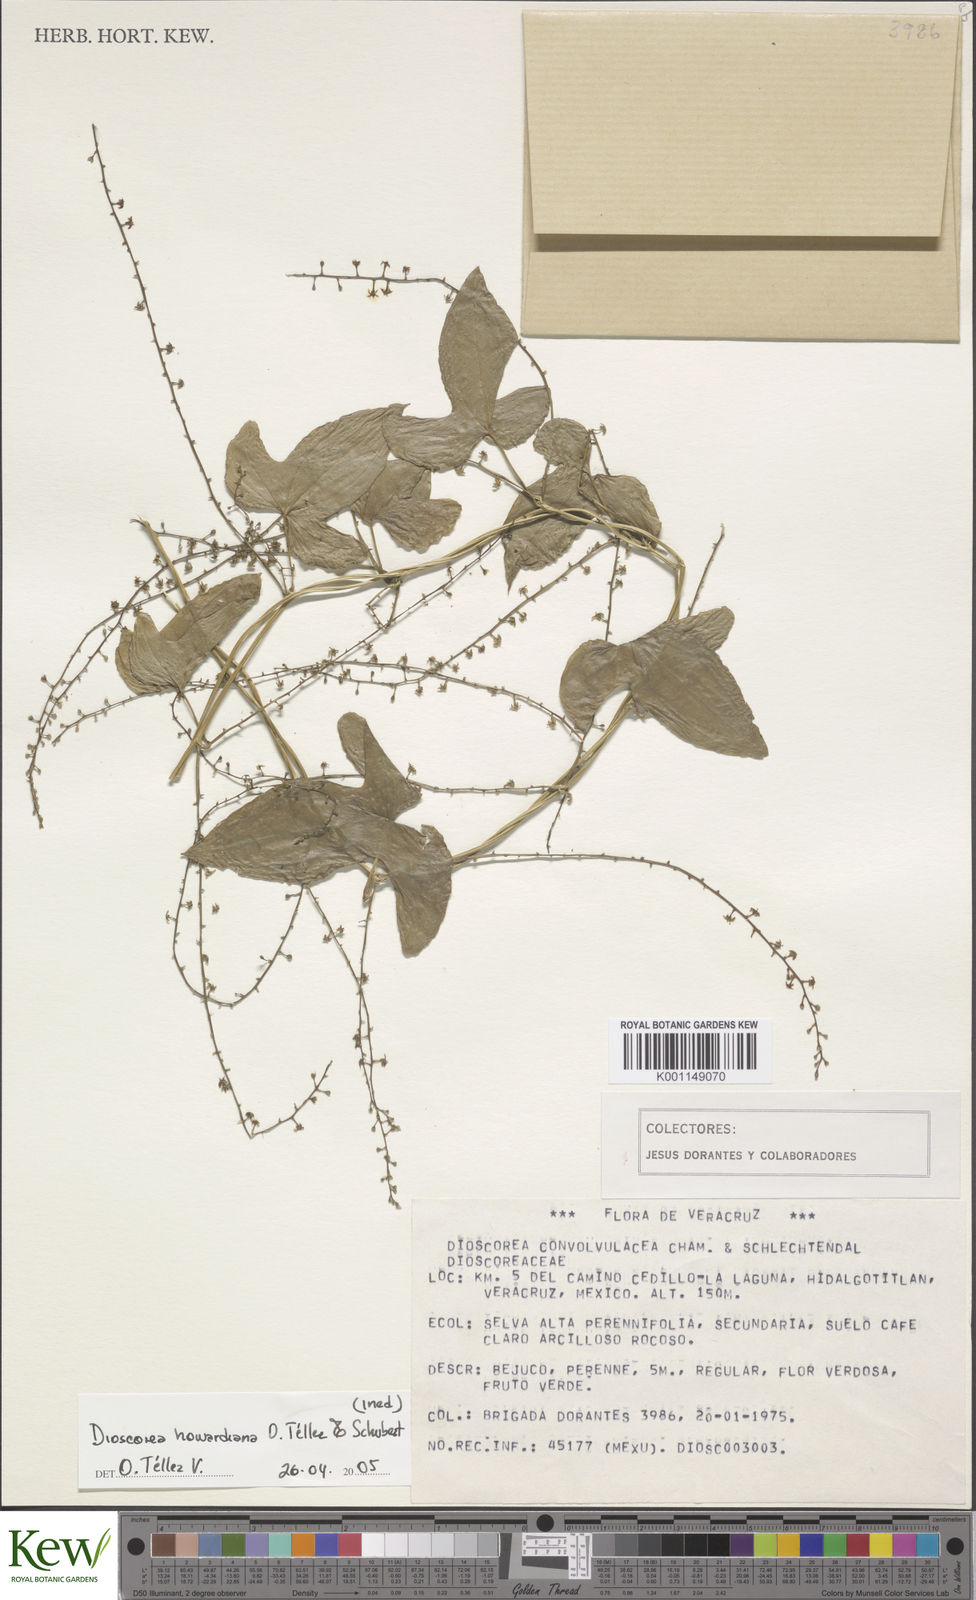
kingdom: Plantae
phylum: Tracheophyta
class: Liliopsida
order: Dioscoreales
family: Dioscoreaceae
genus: Dioscorea
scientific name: Dioscorea
